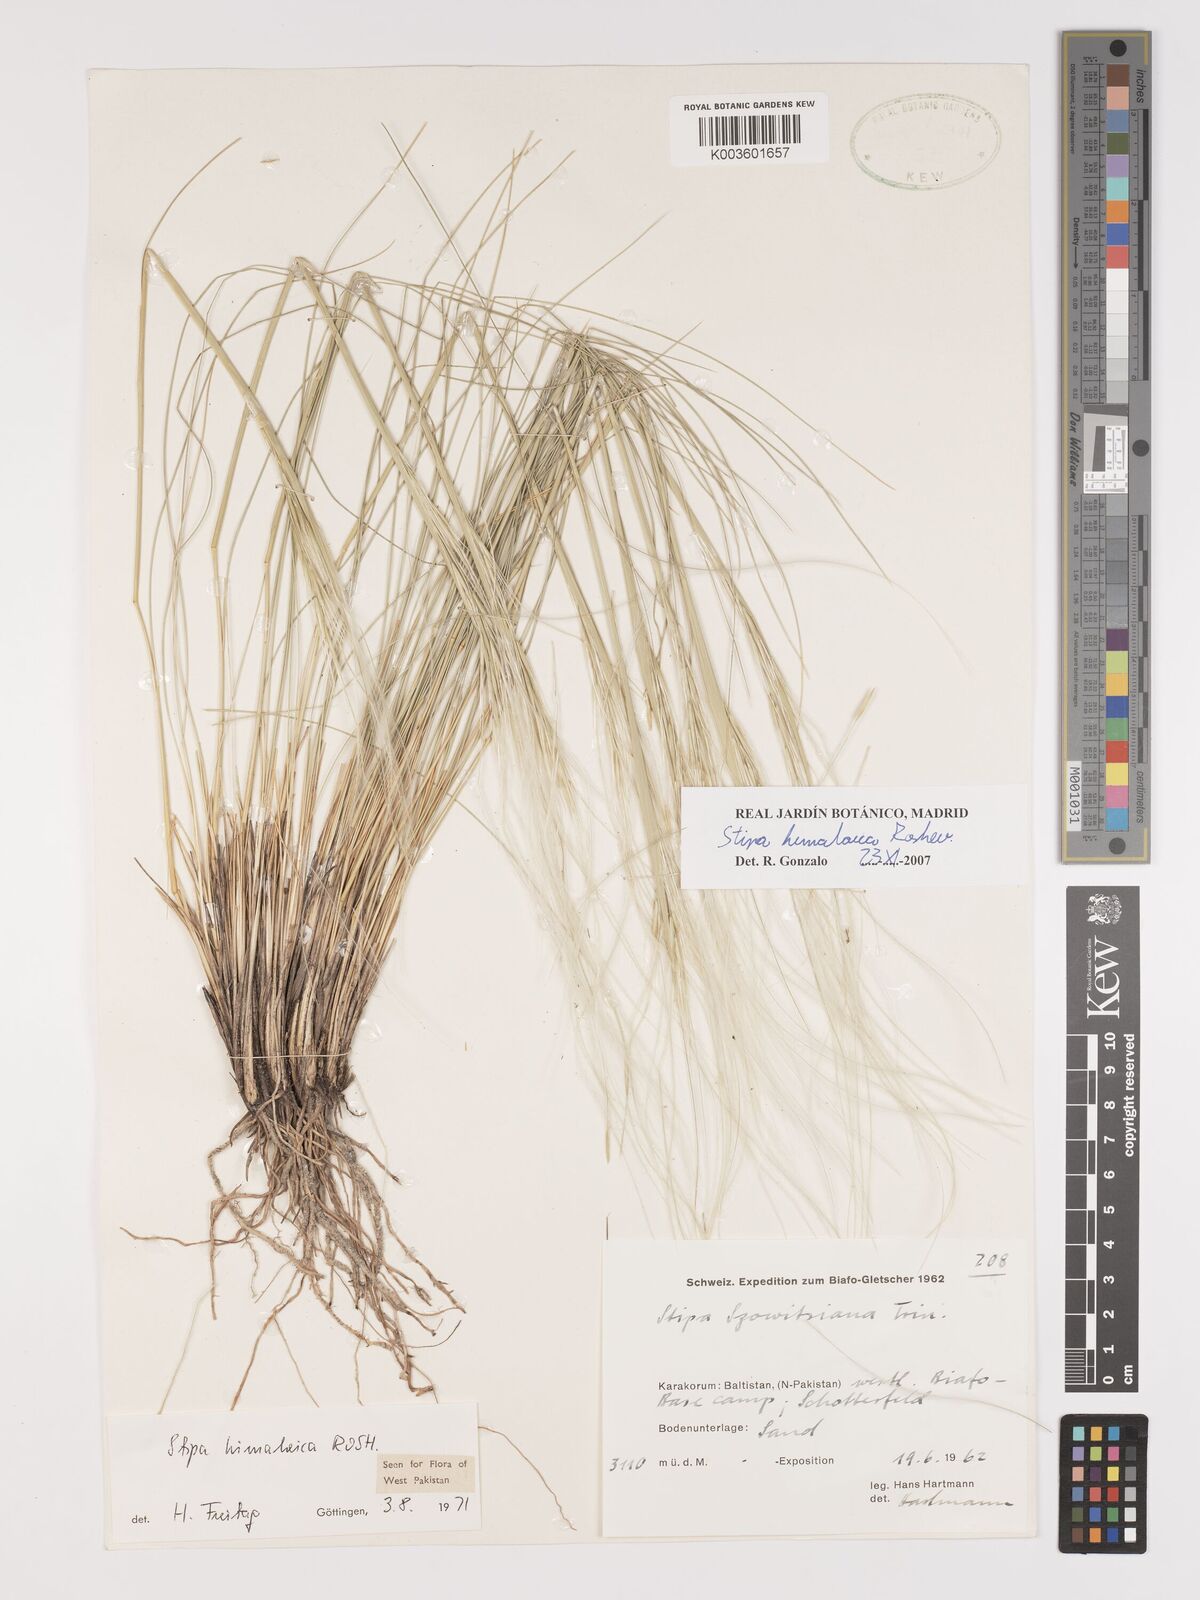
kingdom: Plantae
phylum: Tracheophyta
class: Liliopsida
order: Poales
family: Poaceae
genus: Stipa
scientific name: Stipa himalaica
